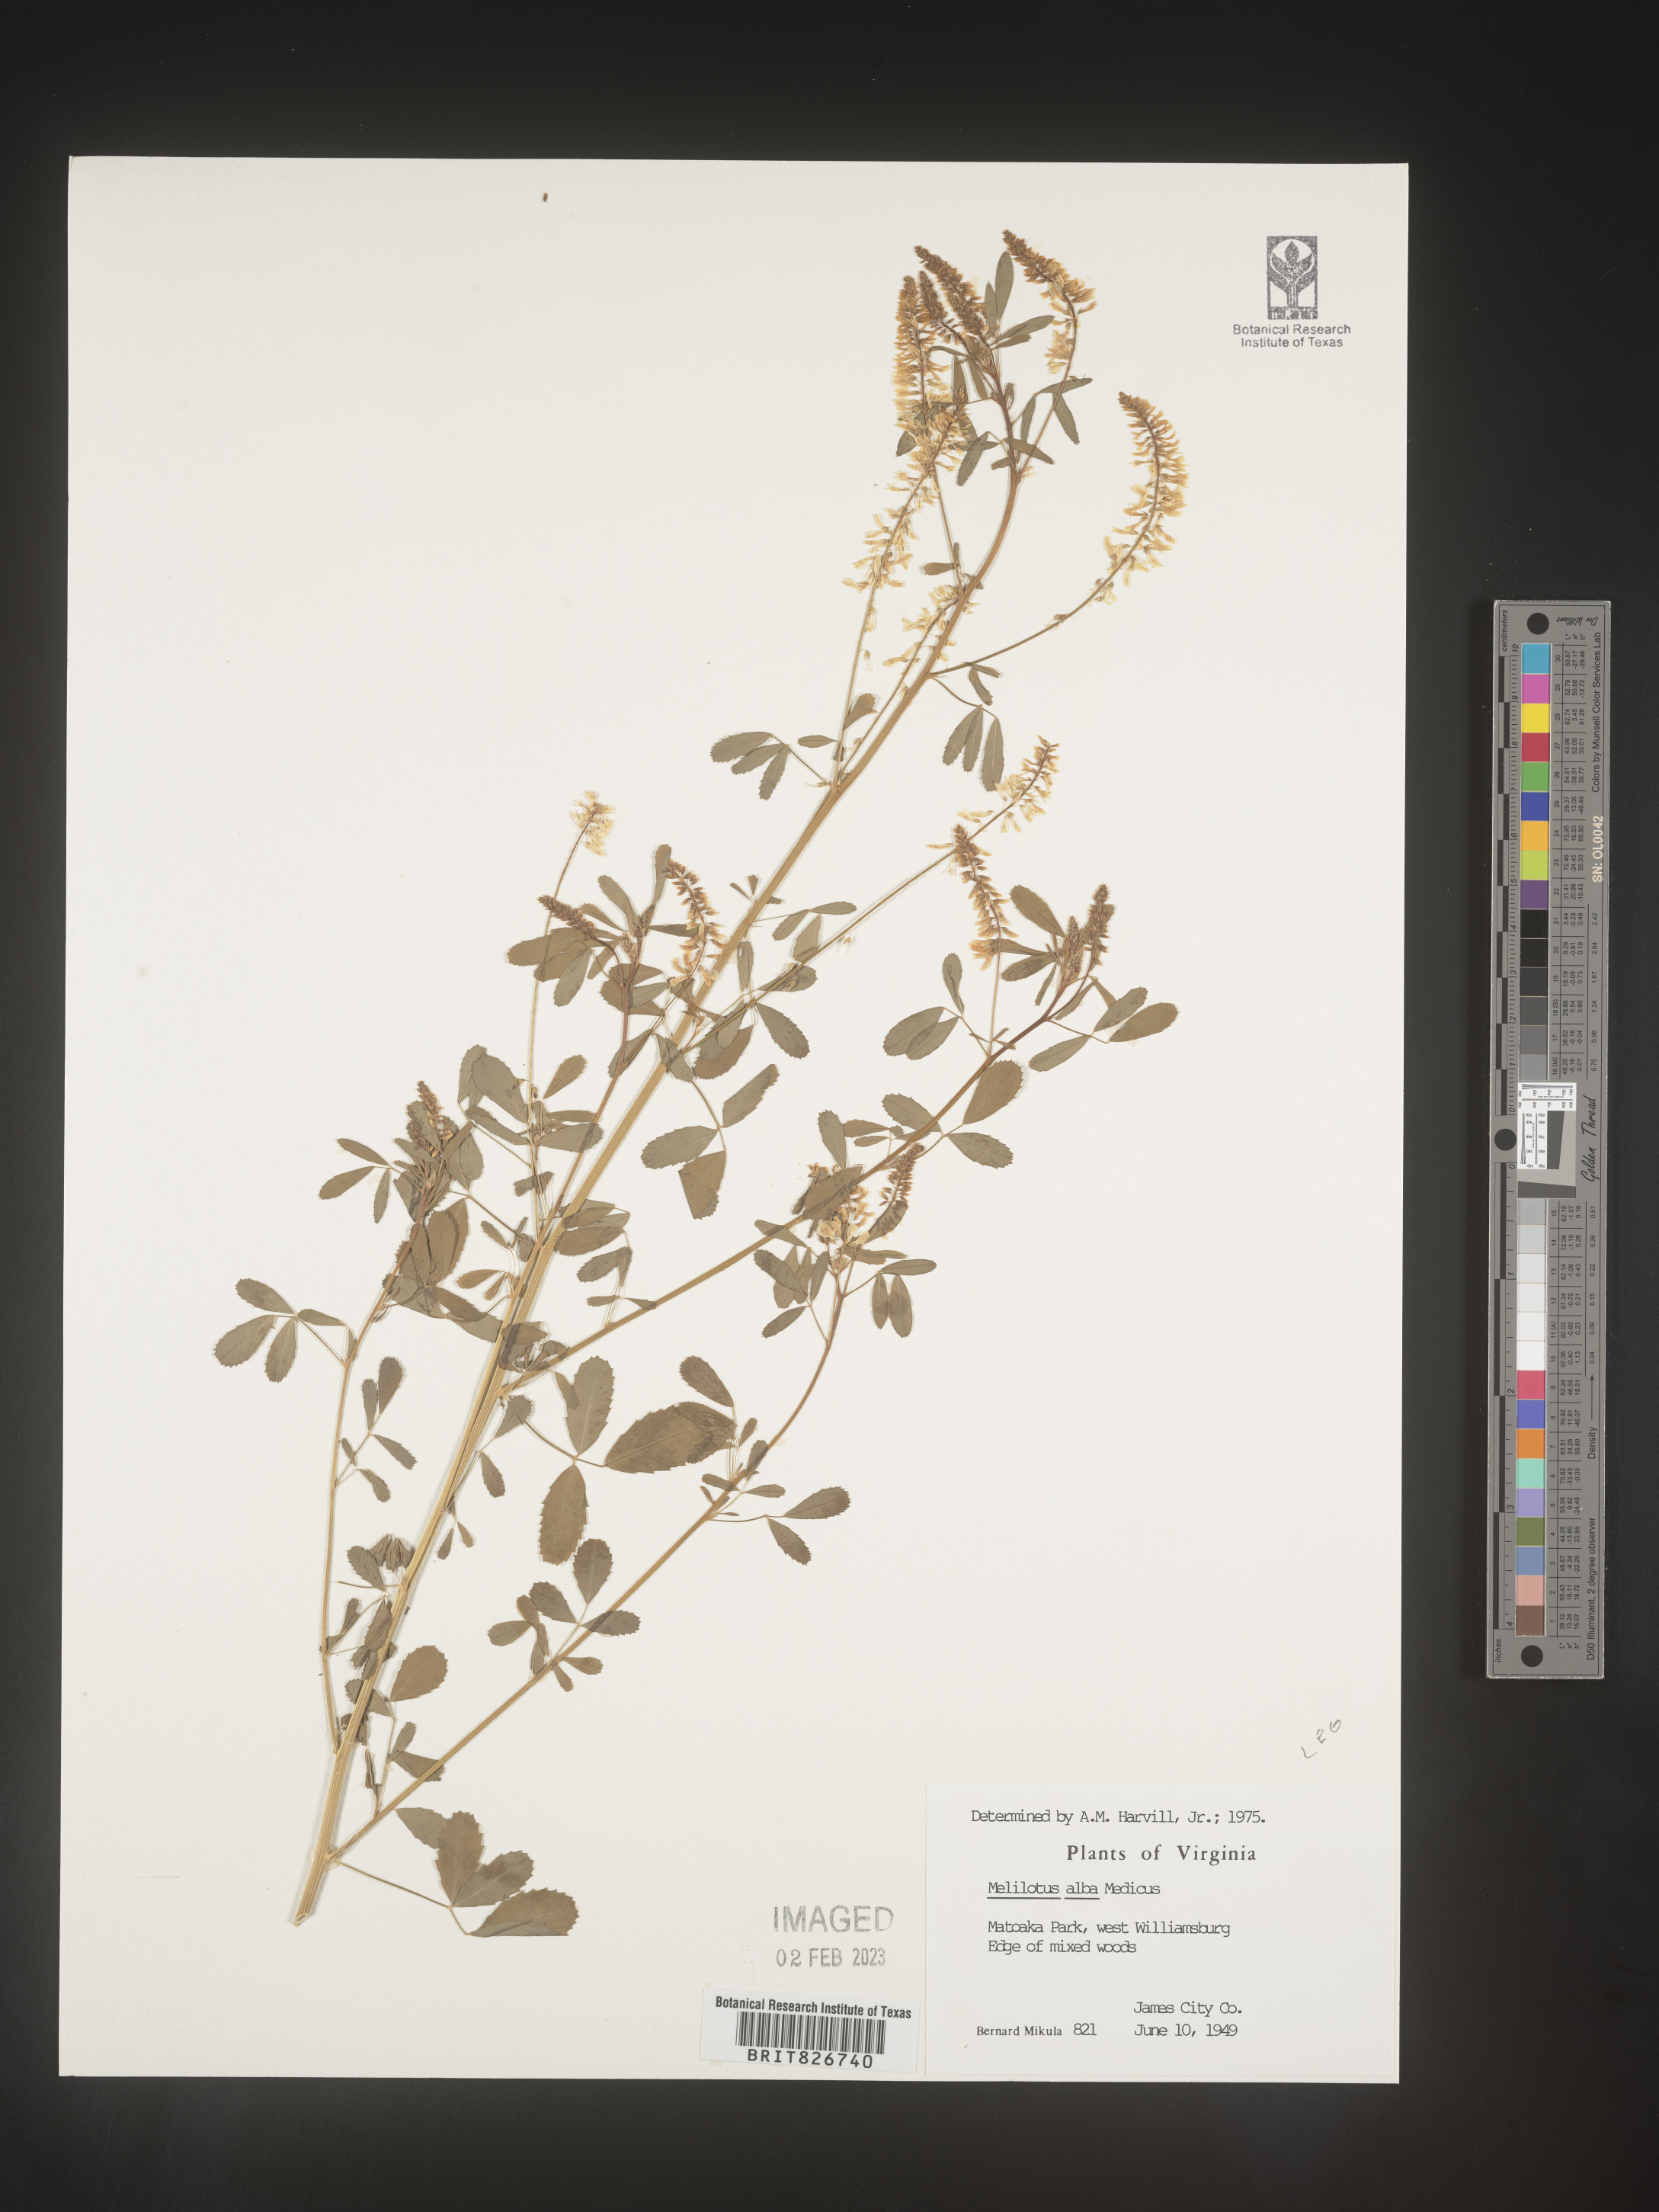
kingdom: Plantae
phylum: Tracheophyta
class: Magnoliopsida
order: Fabales
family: Fabaceae
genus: Melilotus
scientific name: Melilotus albus
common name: White melilot
